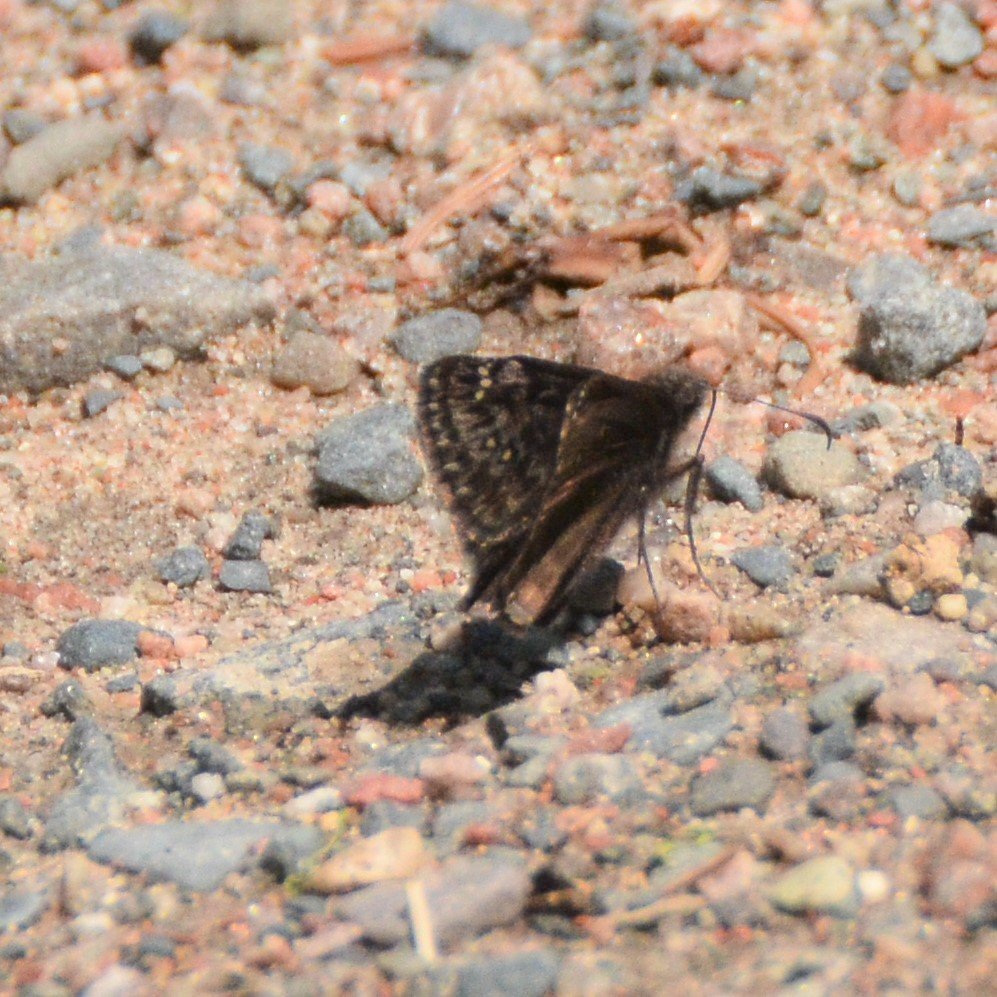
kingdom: Animalia
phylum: Arthropoda
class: Insecta
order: Lepidoptera
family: Hesperiidae
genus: Gesta
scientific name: Gesta
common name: Juvenal's Duskywing
